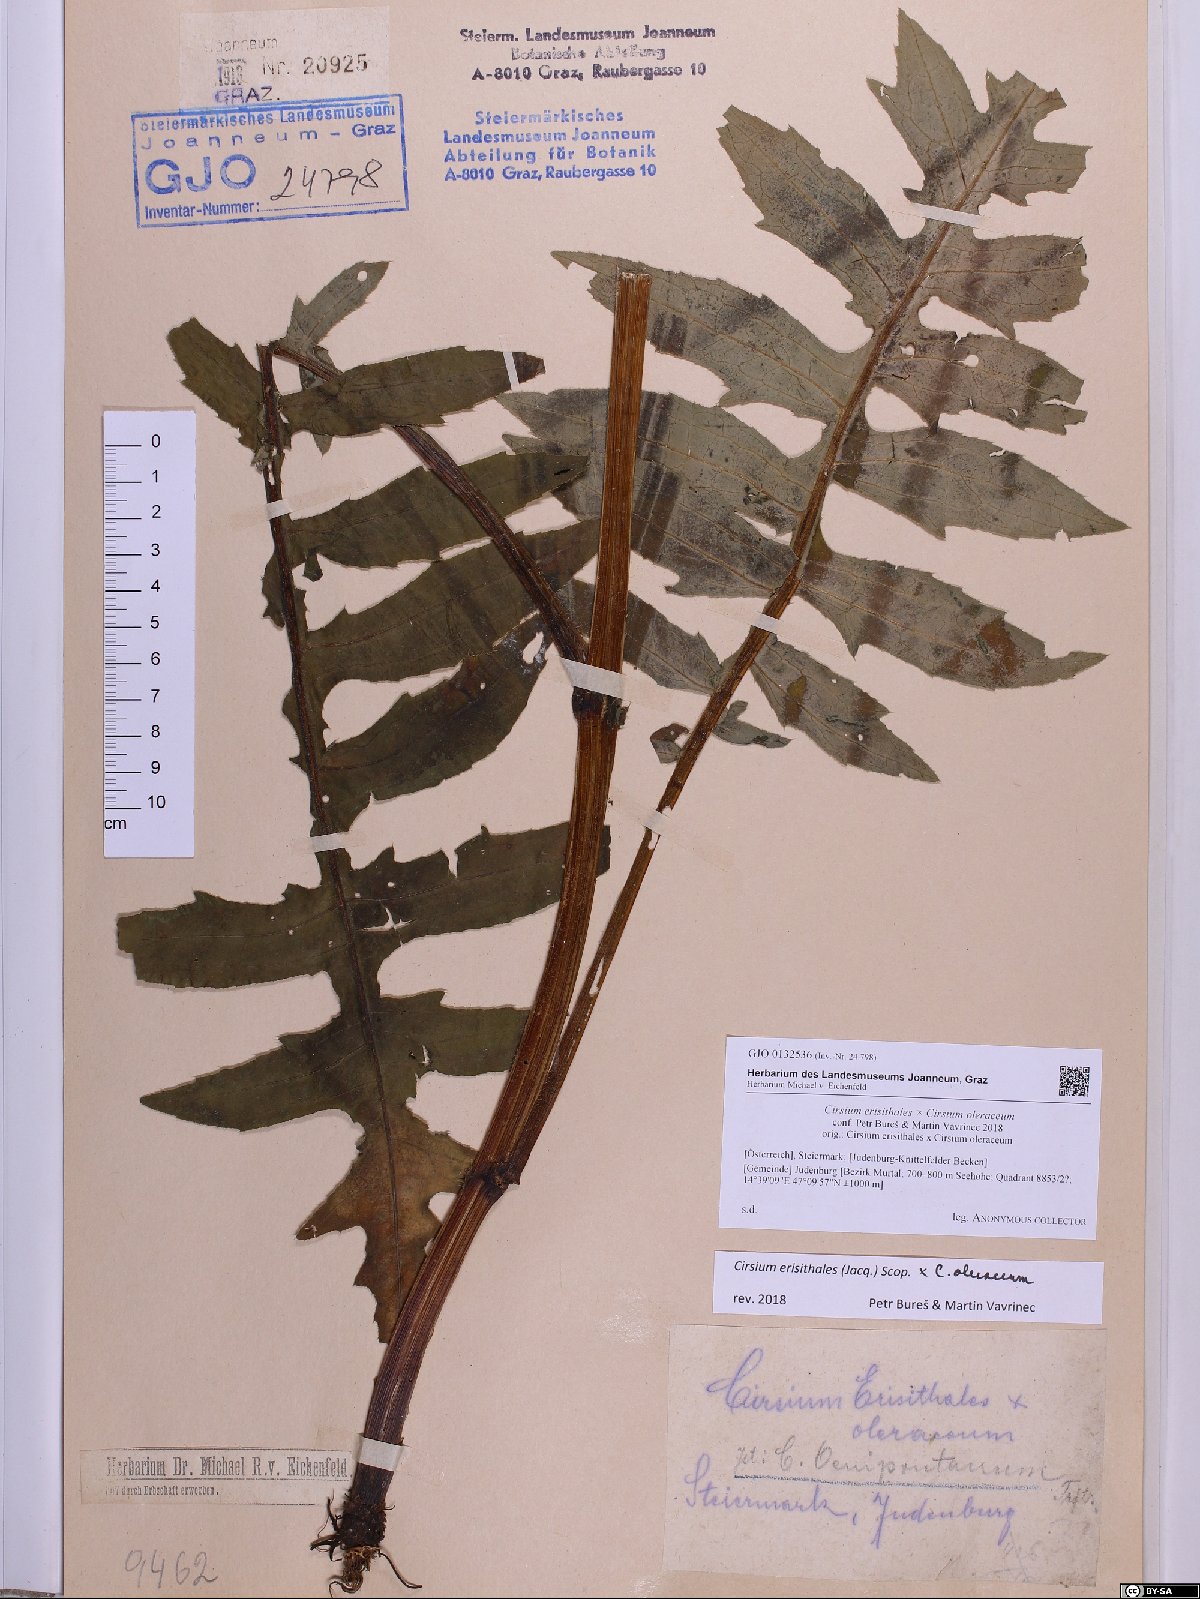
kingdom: Plantae
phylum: Tracheophyta
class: Magnoliopsida
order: Asterales
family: Asteraceae
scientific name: Asteraceae
